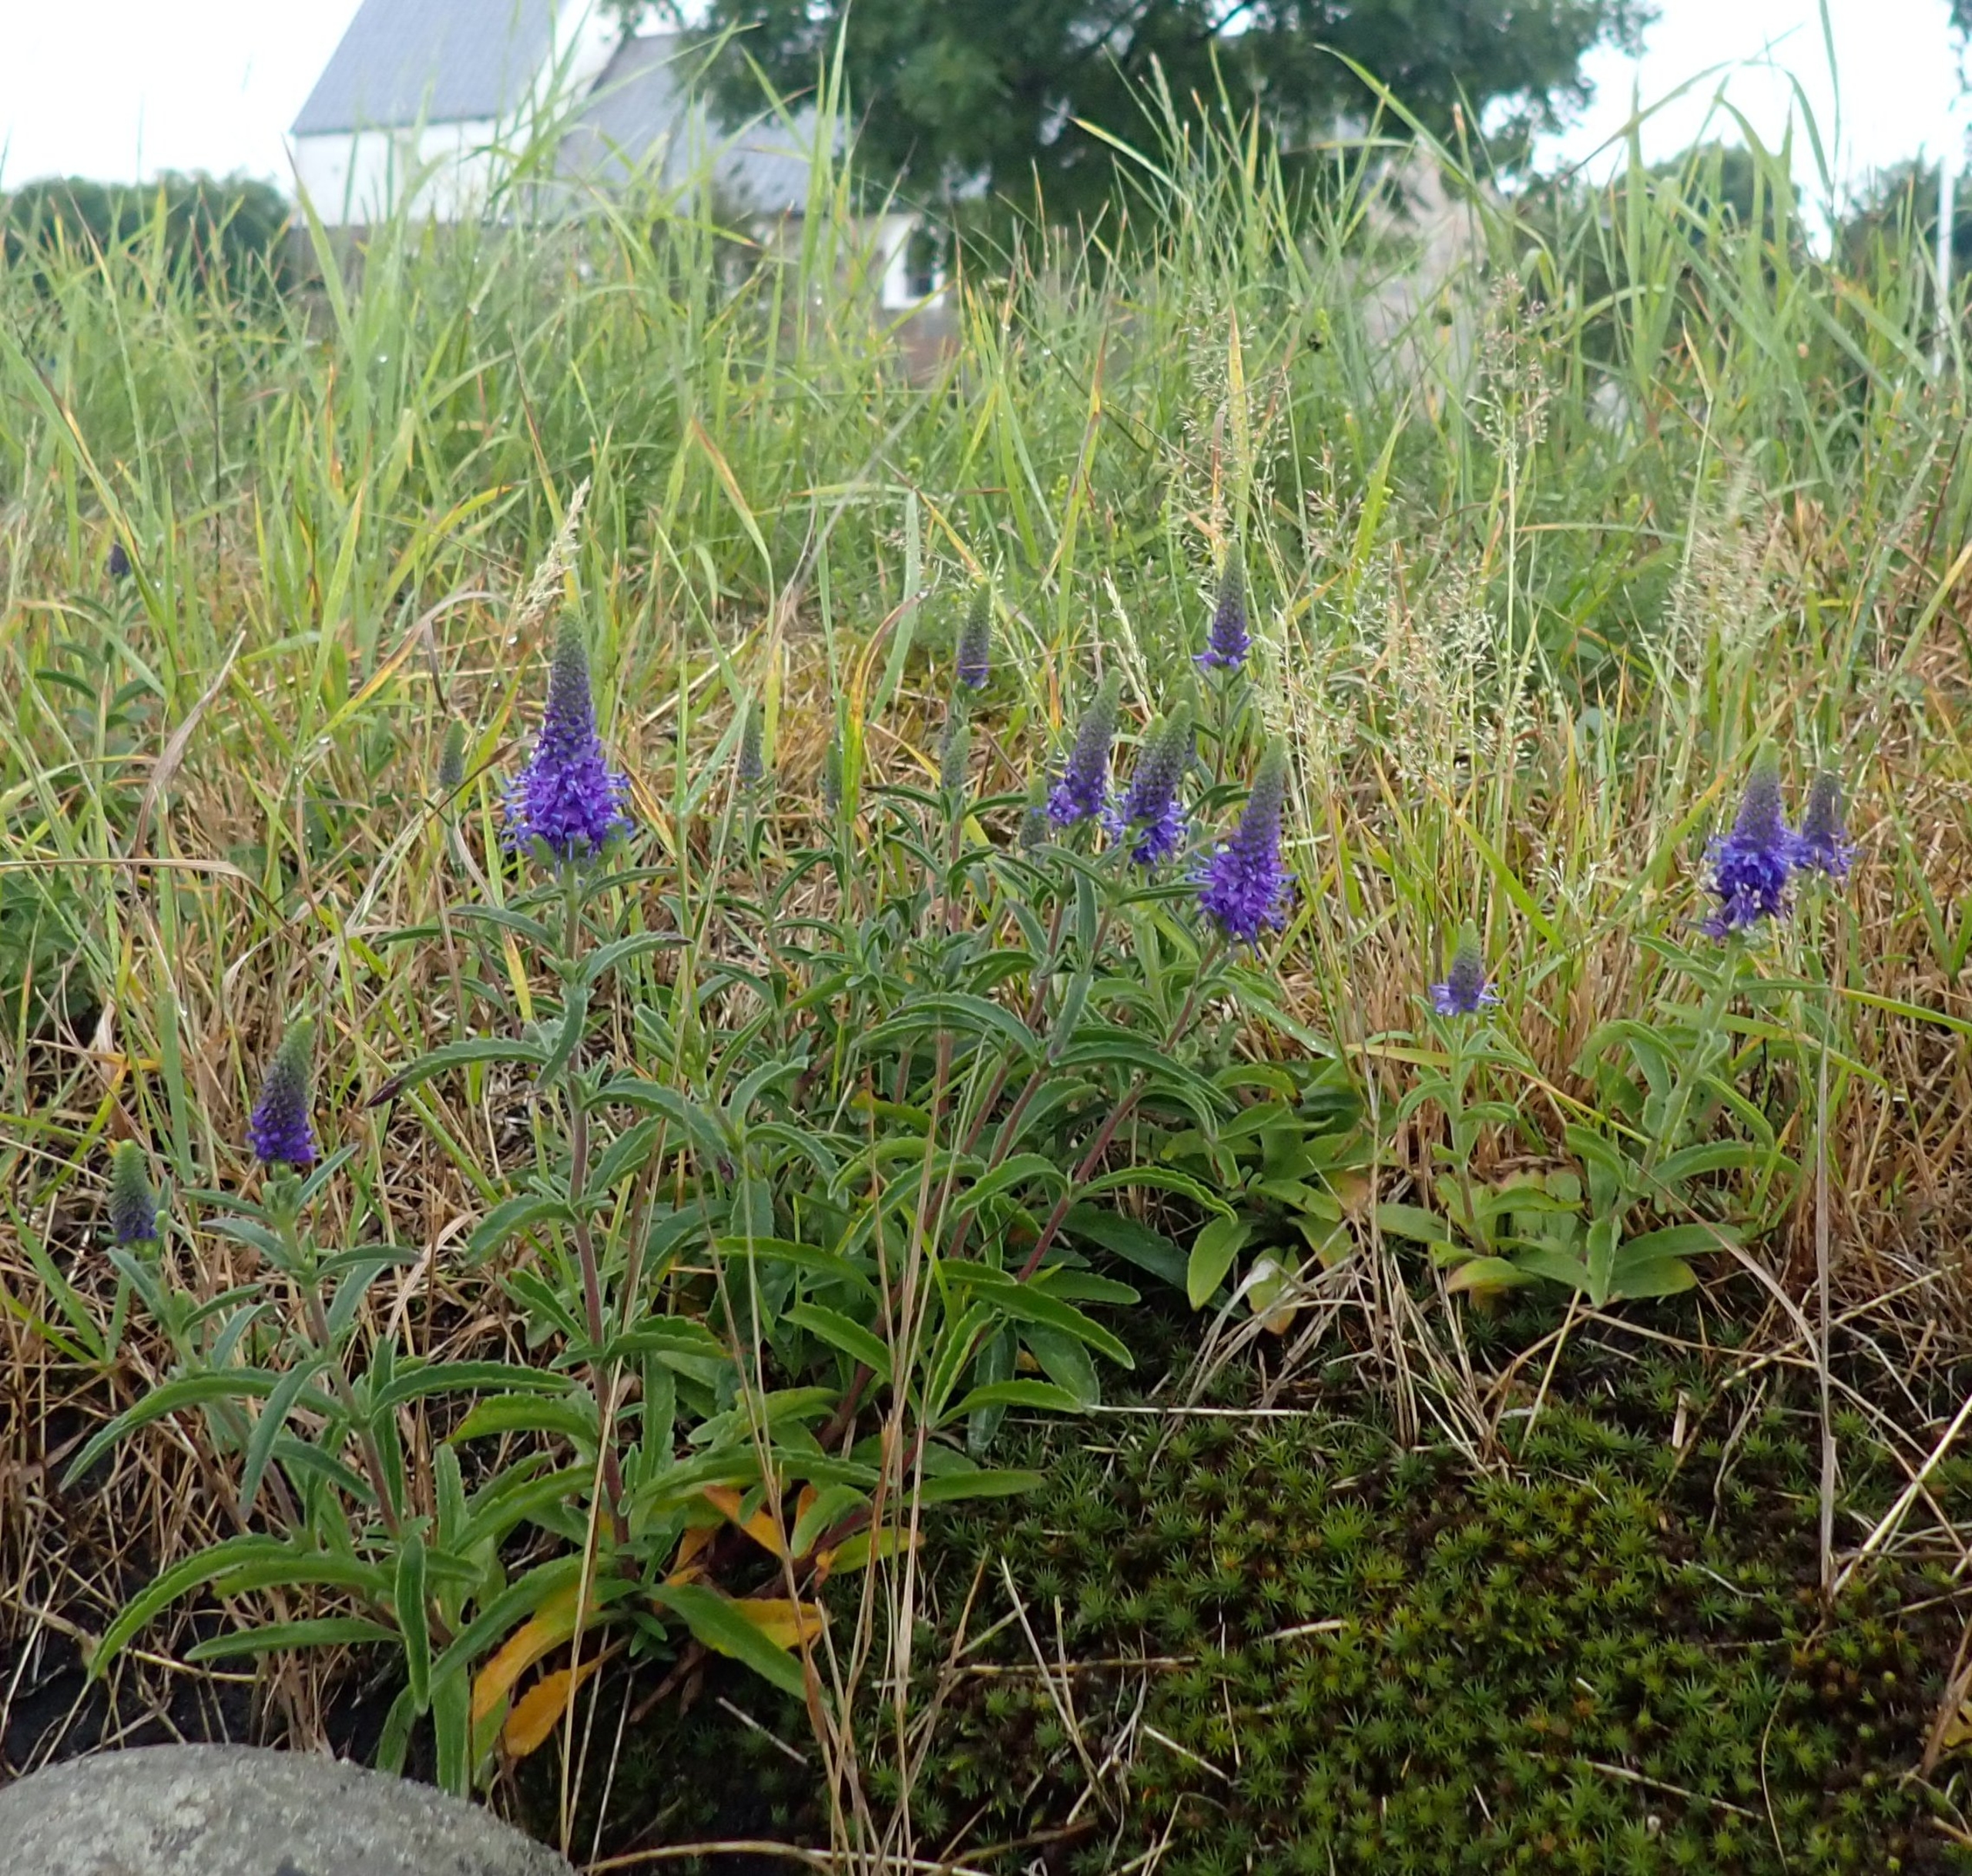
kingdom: Plantae
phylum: Tracheophyta
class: Magnoliopsida
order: Lamiales
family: Plantaginaceae
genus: Veronica
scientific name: Veronica spicata
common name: Aks-ærenpris
